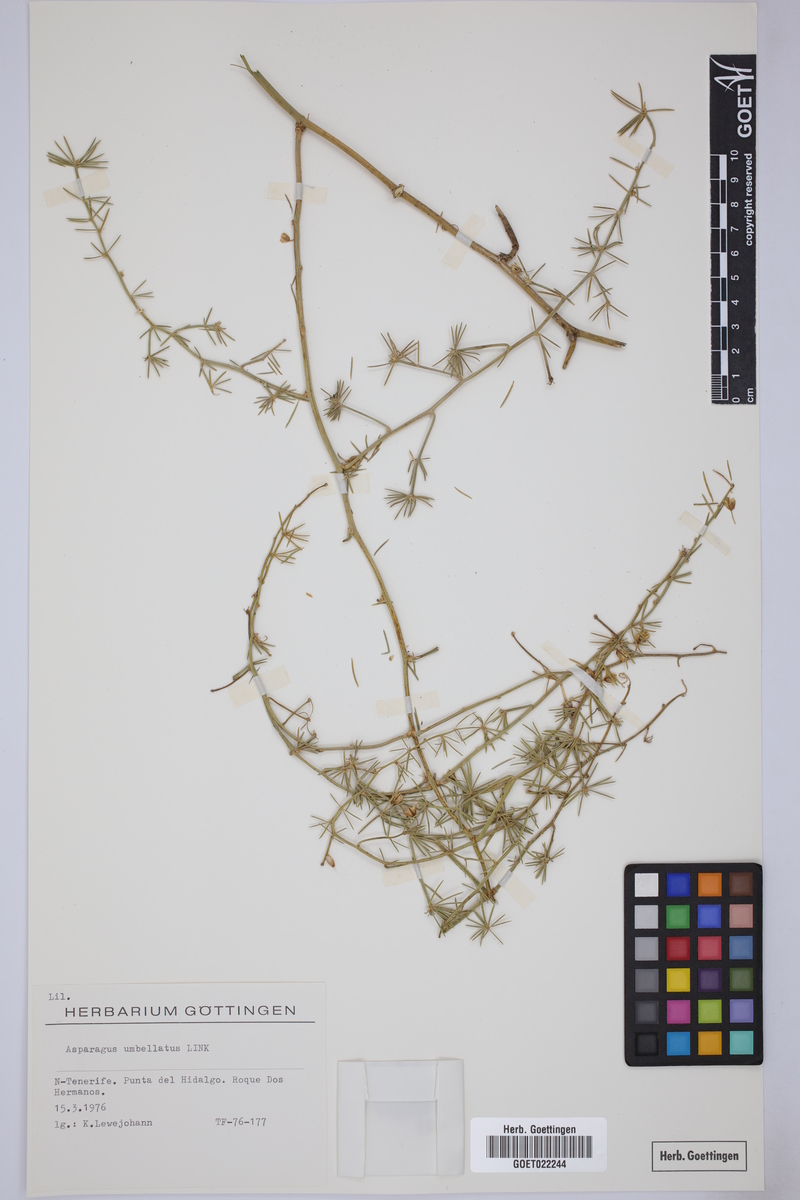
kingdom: Plantae
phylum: Tracheophyta
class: Liliopsida
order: Asparagales
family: Asparagaceae
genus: Asparagus
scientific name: Asparagus umbellatus
